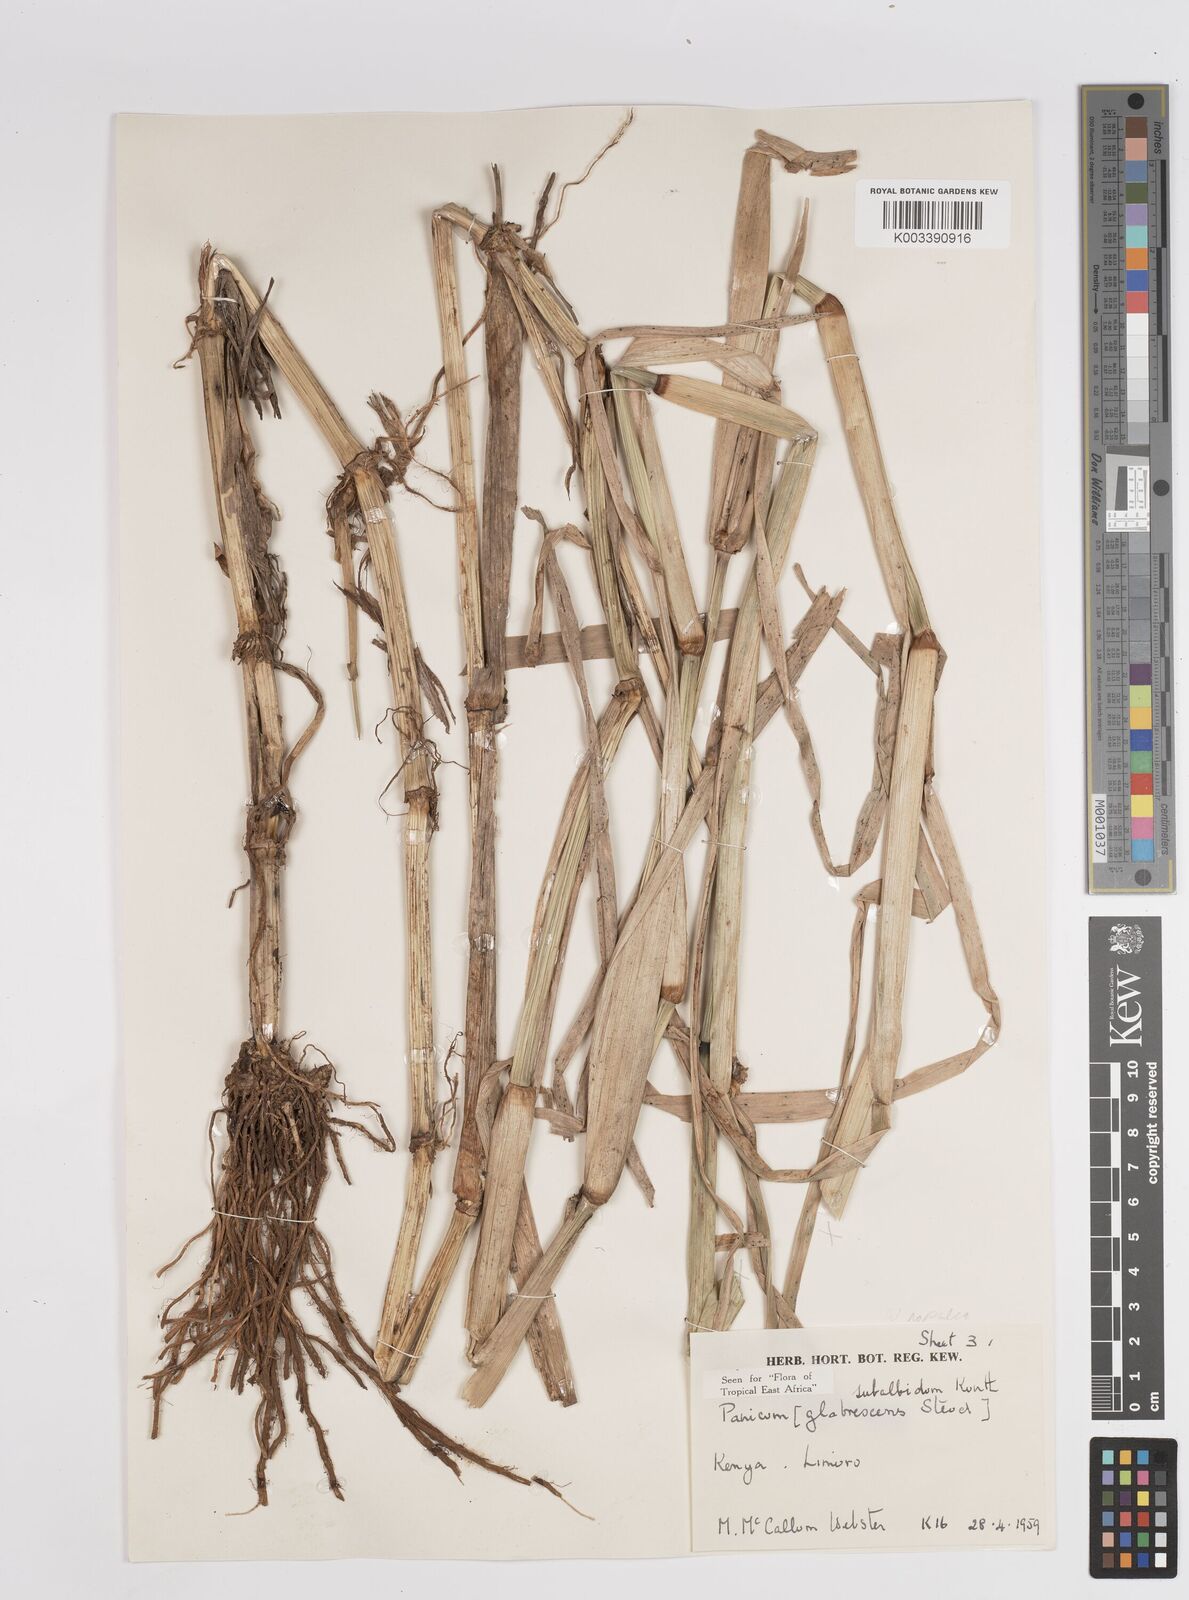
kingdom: Plantae
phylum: Tracheophyta
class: Liliopsida
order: Poales
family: Poaceae
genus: Panicum
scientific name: Panicum subalbidum
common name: Elbow buffalo grass
